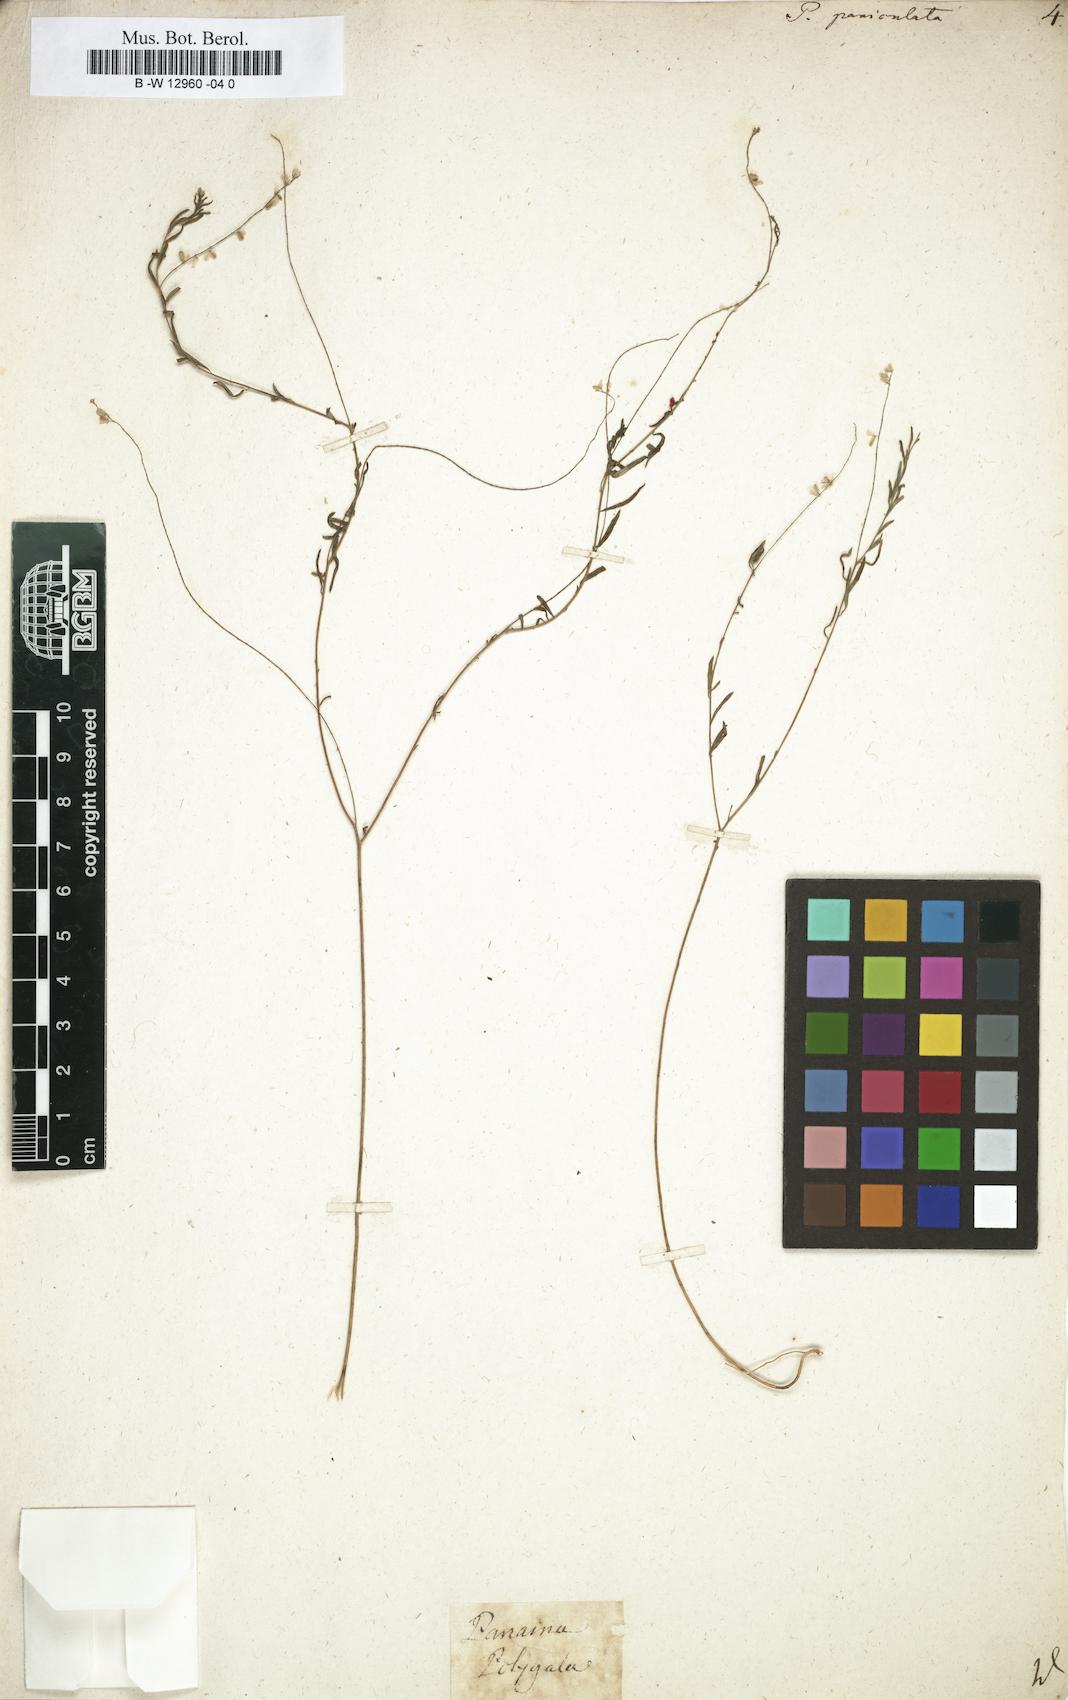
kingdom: Plantae
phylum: Tracheophyta
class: Magnoliopsida
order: Fabales
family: Polygalaceae
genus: Polygala
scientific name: Polygala paniculata
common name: Orosne
